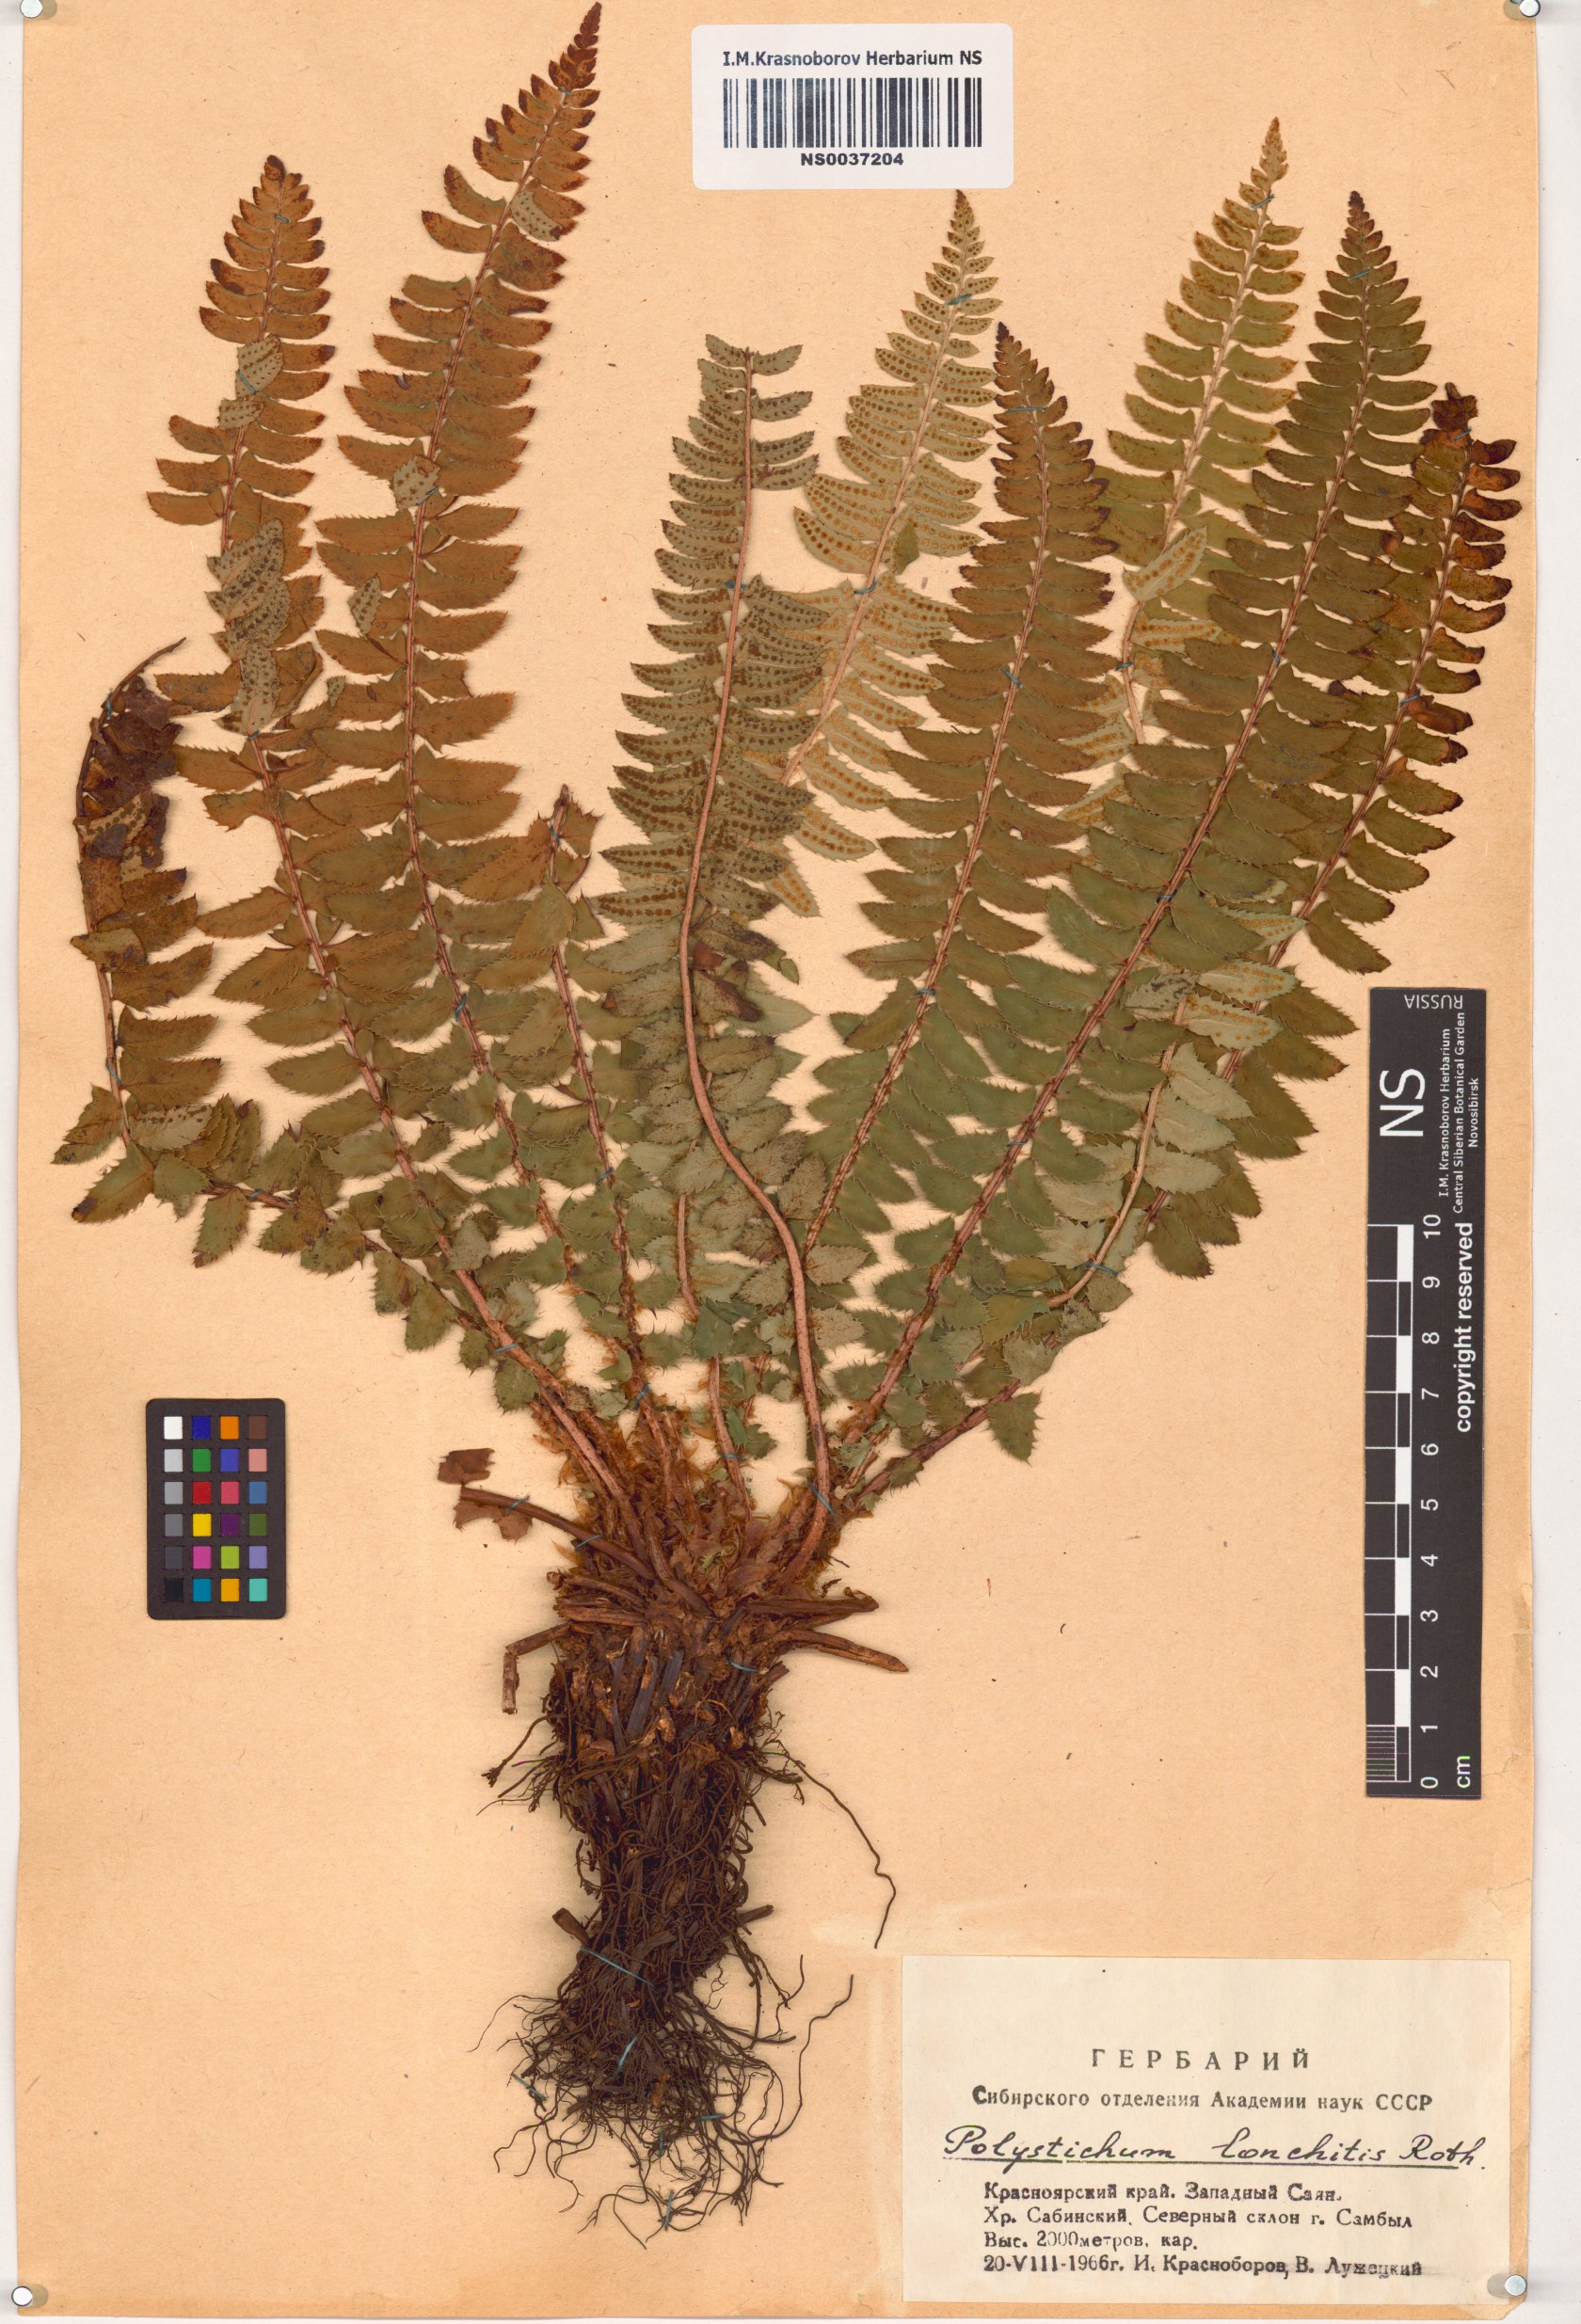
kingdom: Plantae
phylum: Tracheophyta
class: Polypodiopsida
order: Polypodiales
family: Dryopteridaceae
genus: Polystichum
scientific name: Polystichum lonchitis
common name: Holly fern
